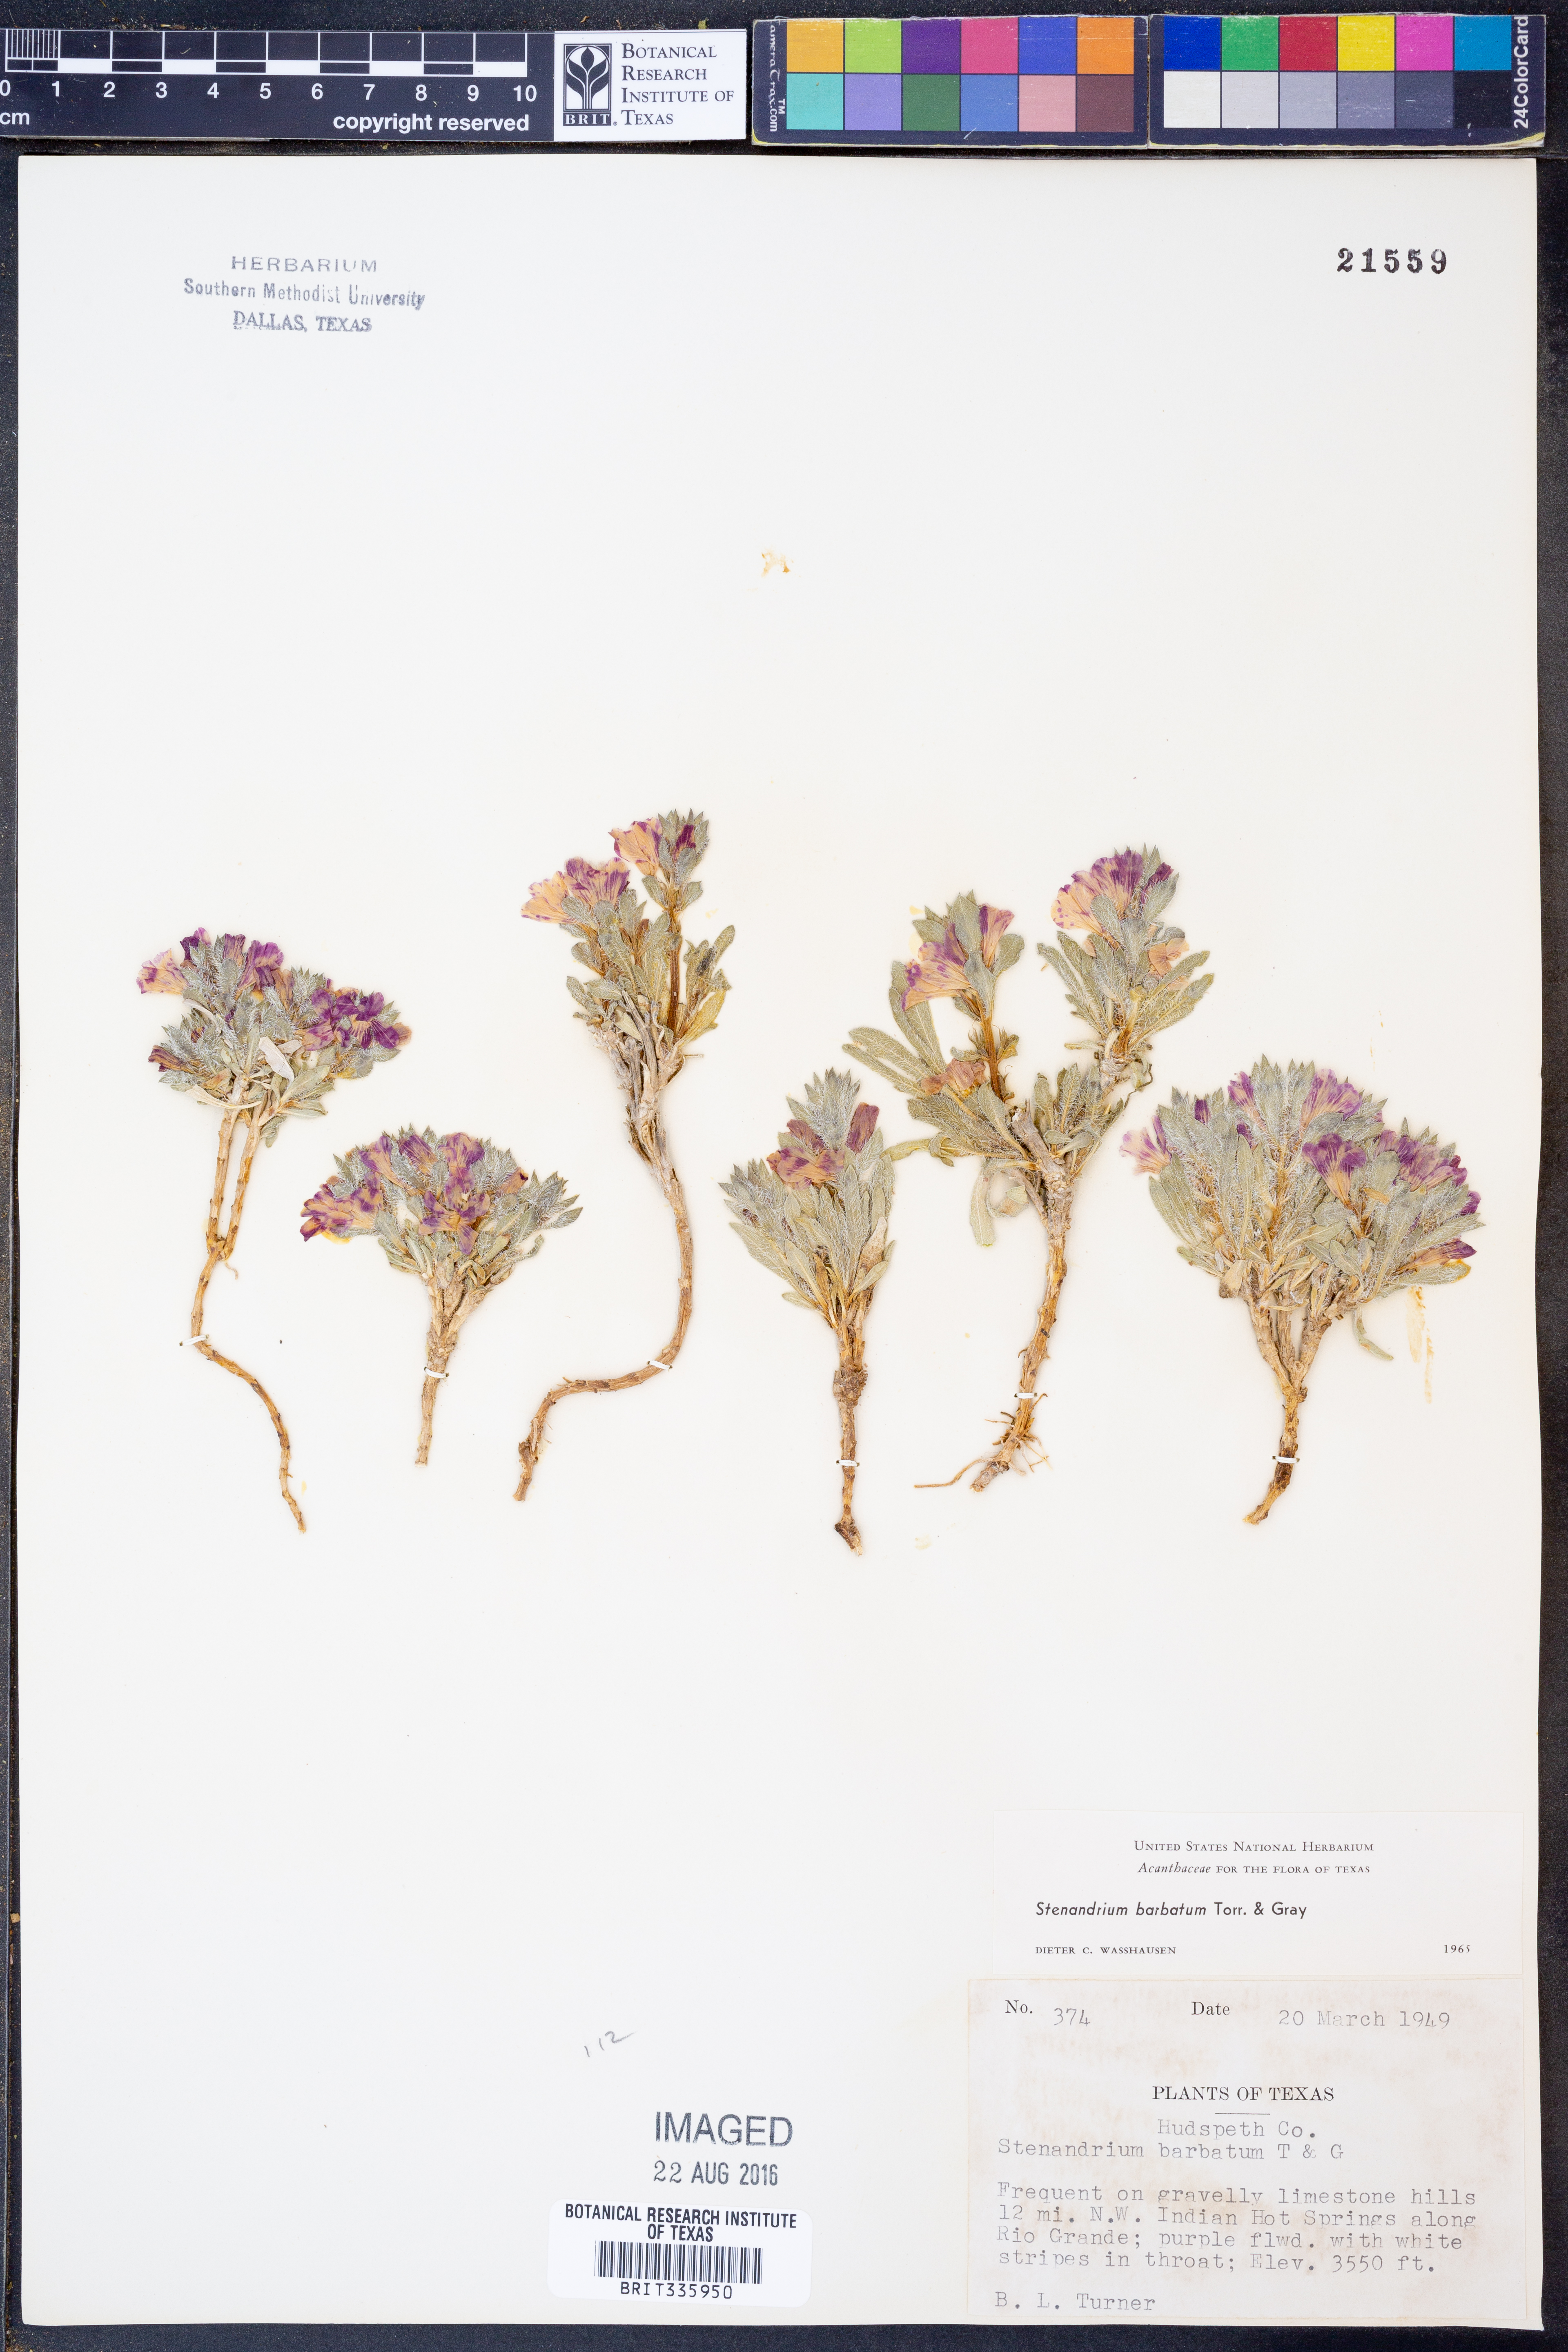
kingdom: Plantae
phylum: Tracheophyta
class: Magnoliopsida
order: Lamiales
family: Acanthaceae
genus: Stenandrium
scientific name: Stenandrium barbatum
